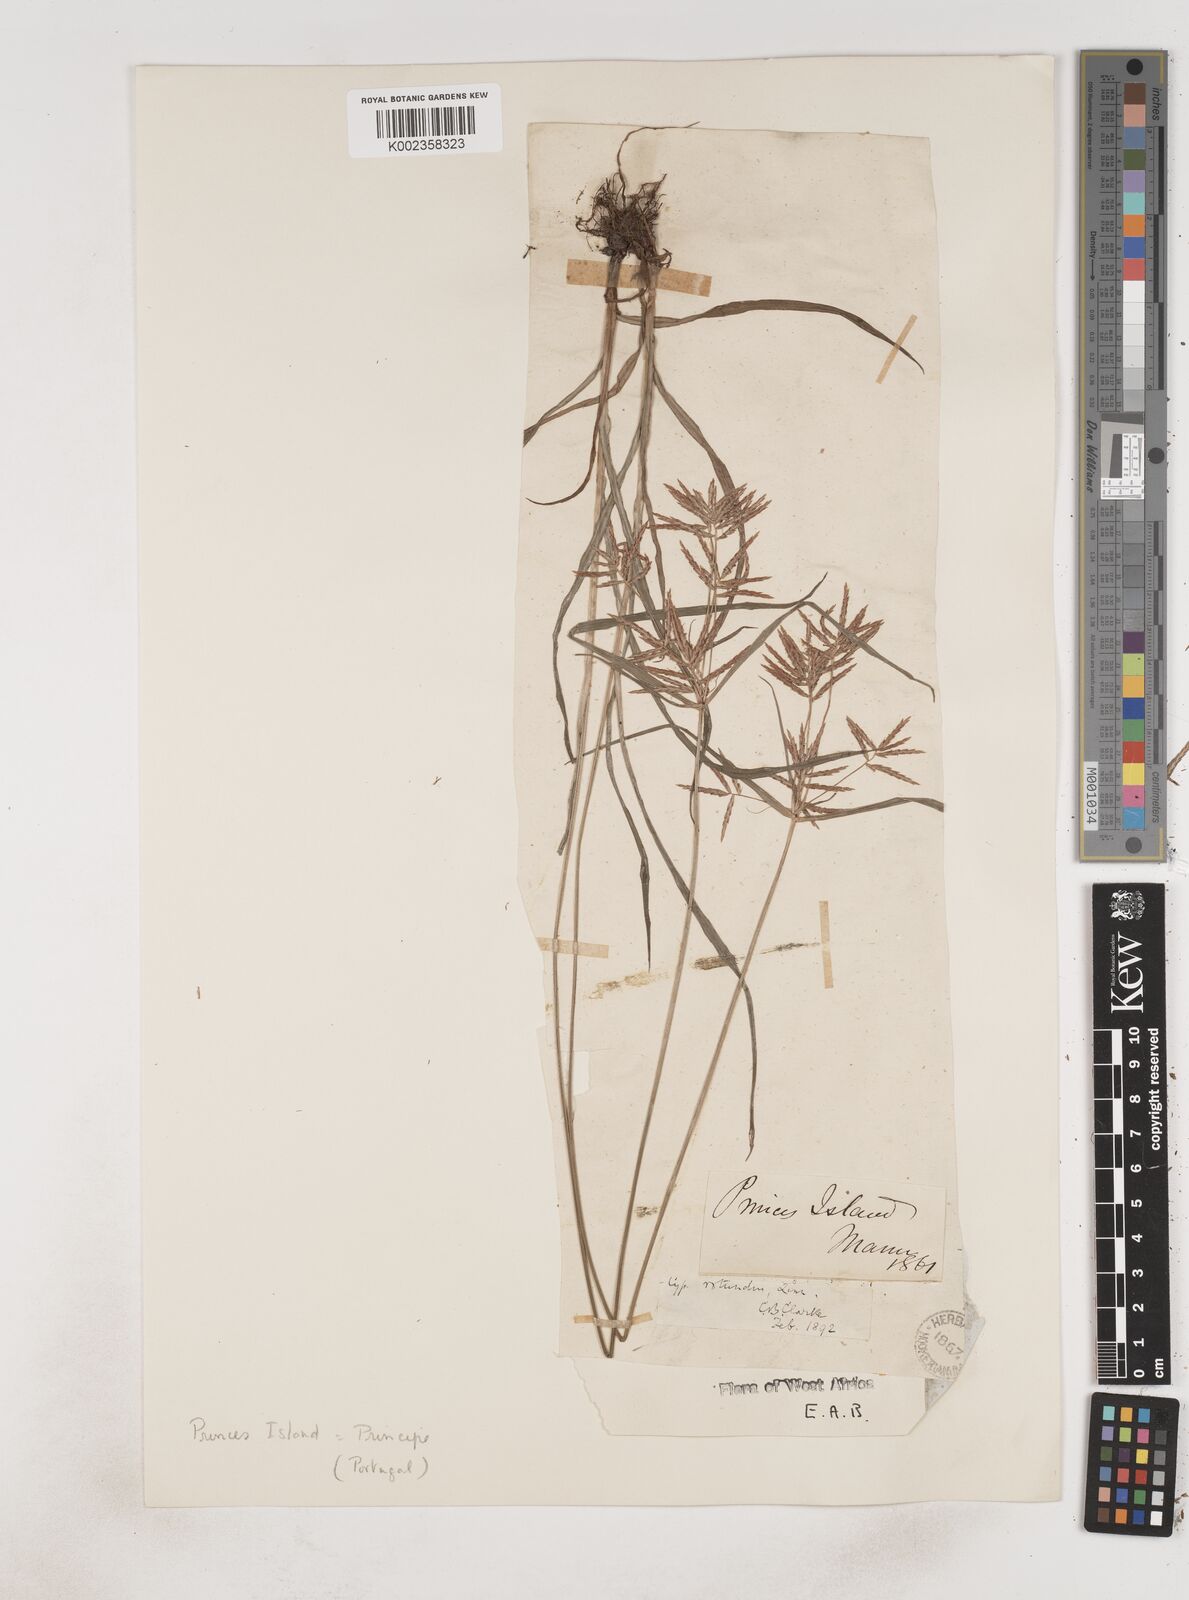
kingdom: Plantae
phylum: Tracheophyta
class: Liliopsida
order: Poales
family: Cyperaceae
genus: Cyperus
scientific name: Cyperus tuberosus
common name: Nut grass
